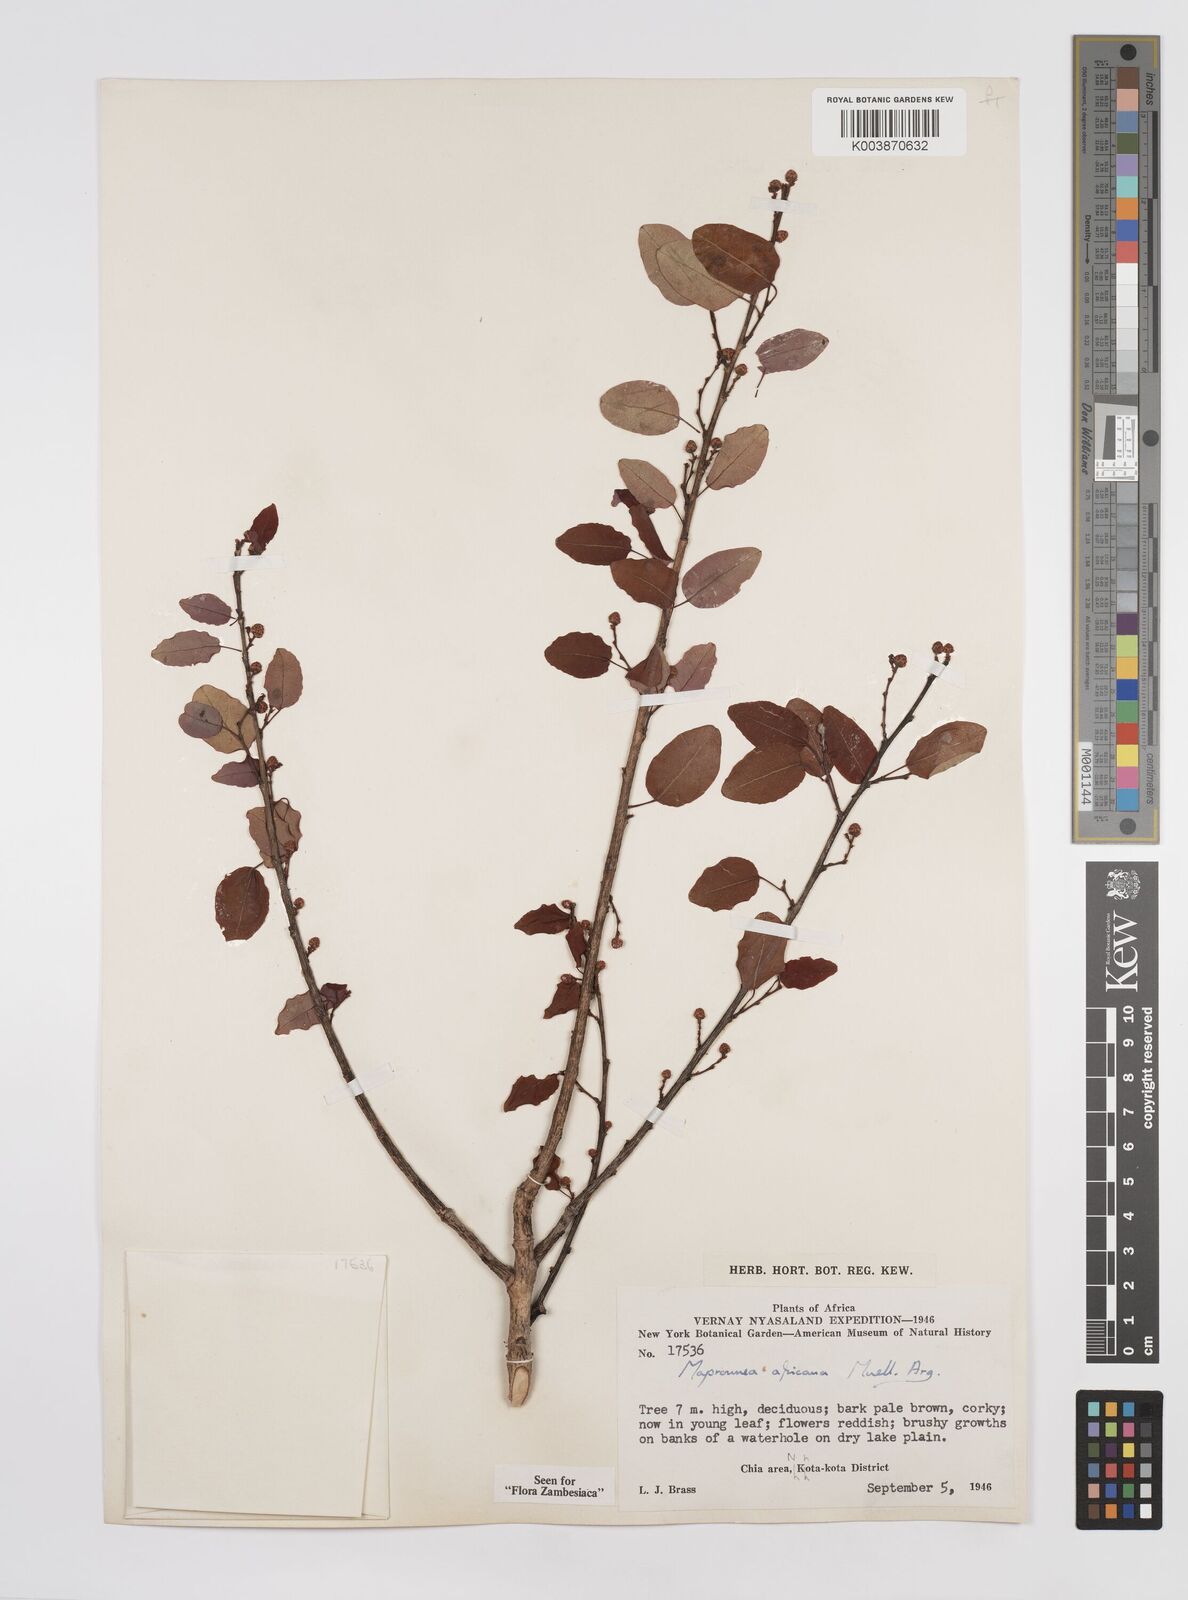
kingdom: Plantae
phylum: Tracheophyta
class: Magnoliopsida
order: Malpighiales
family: Euphorbiaceae
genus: Maprounea
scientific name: Maprounea africana
